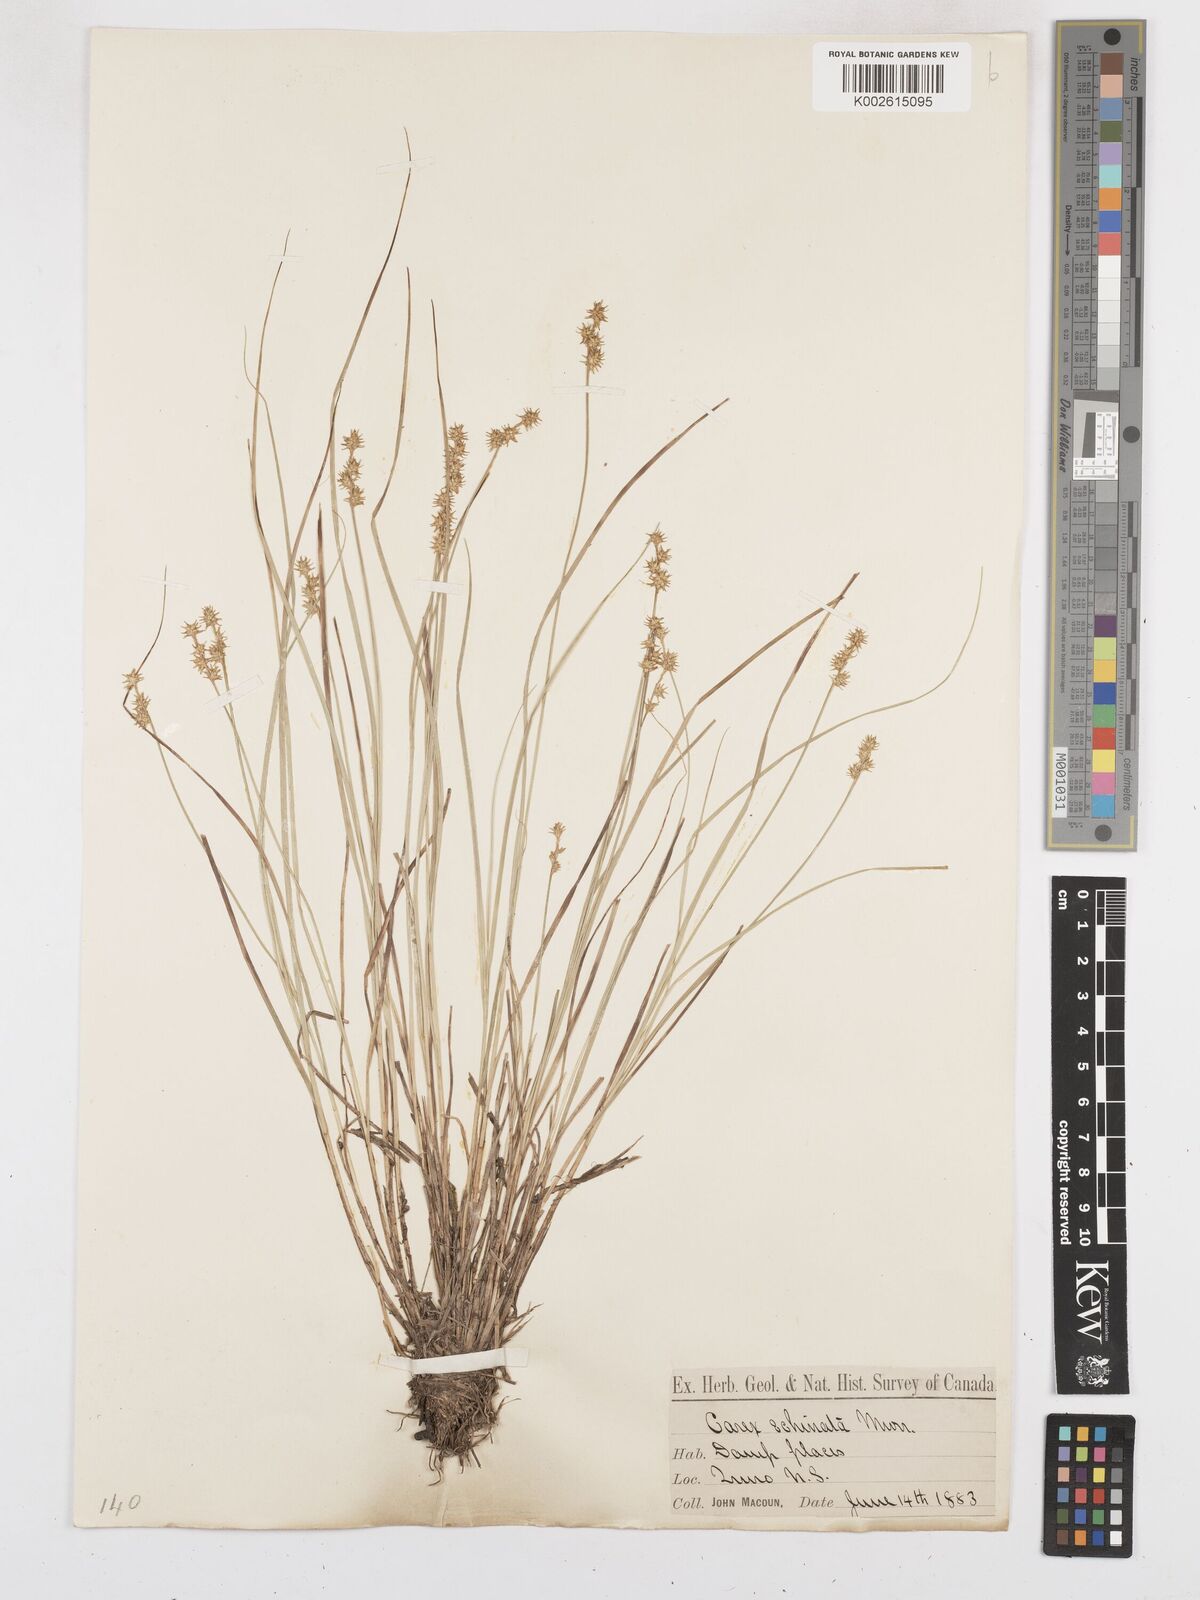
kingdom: Plantae
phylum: Tracheophyta
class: Liliopsida
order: Poales
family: Cyperaceae
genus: Carex
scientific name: Carex echinata
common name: Star sedge
